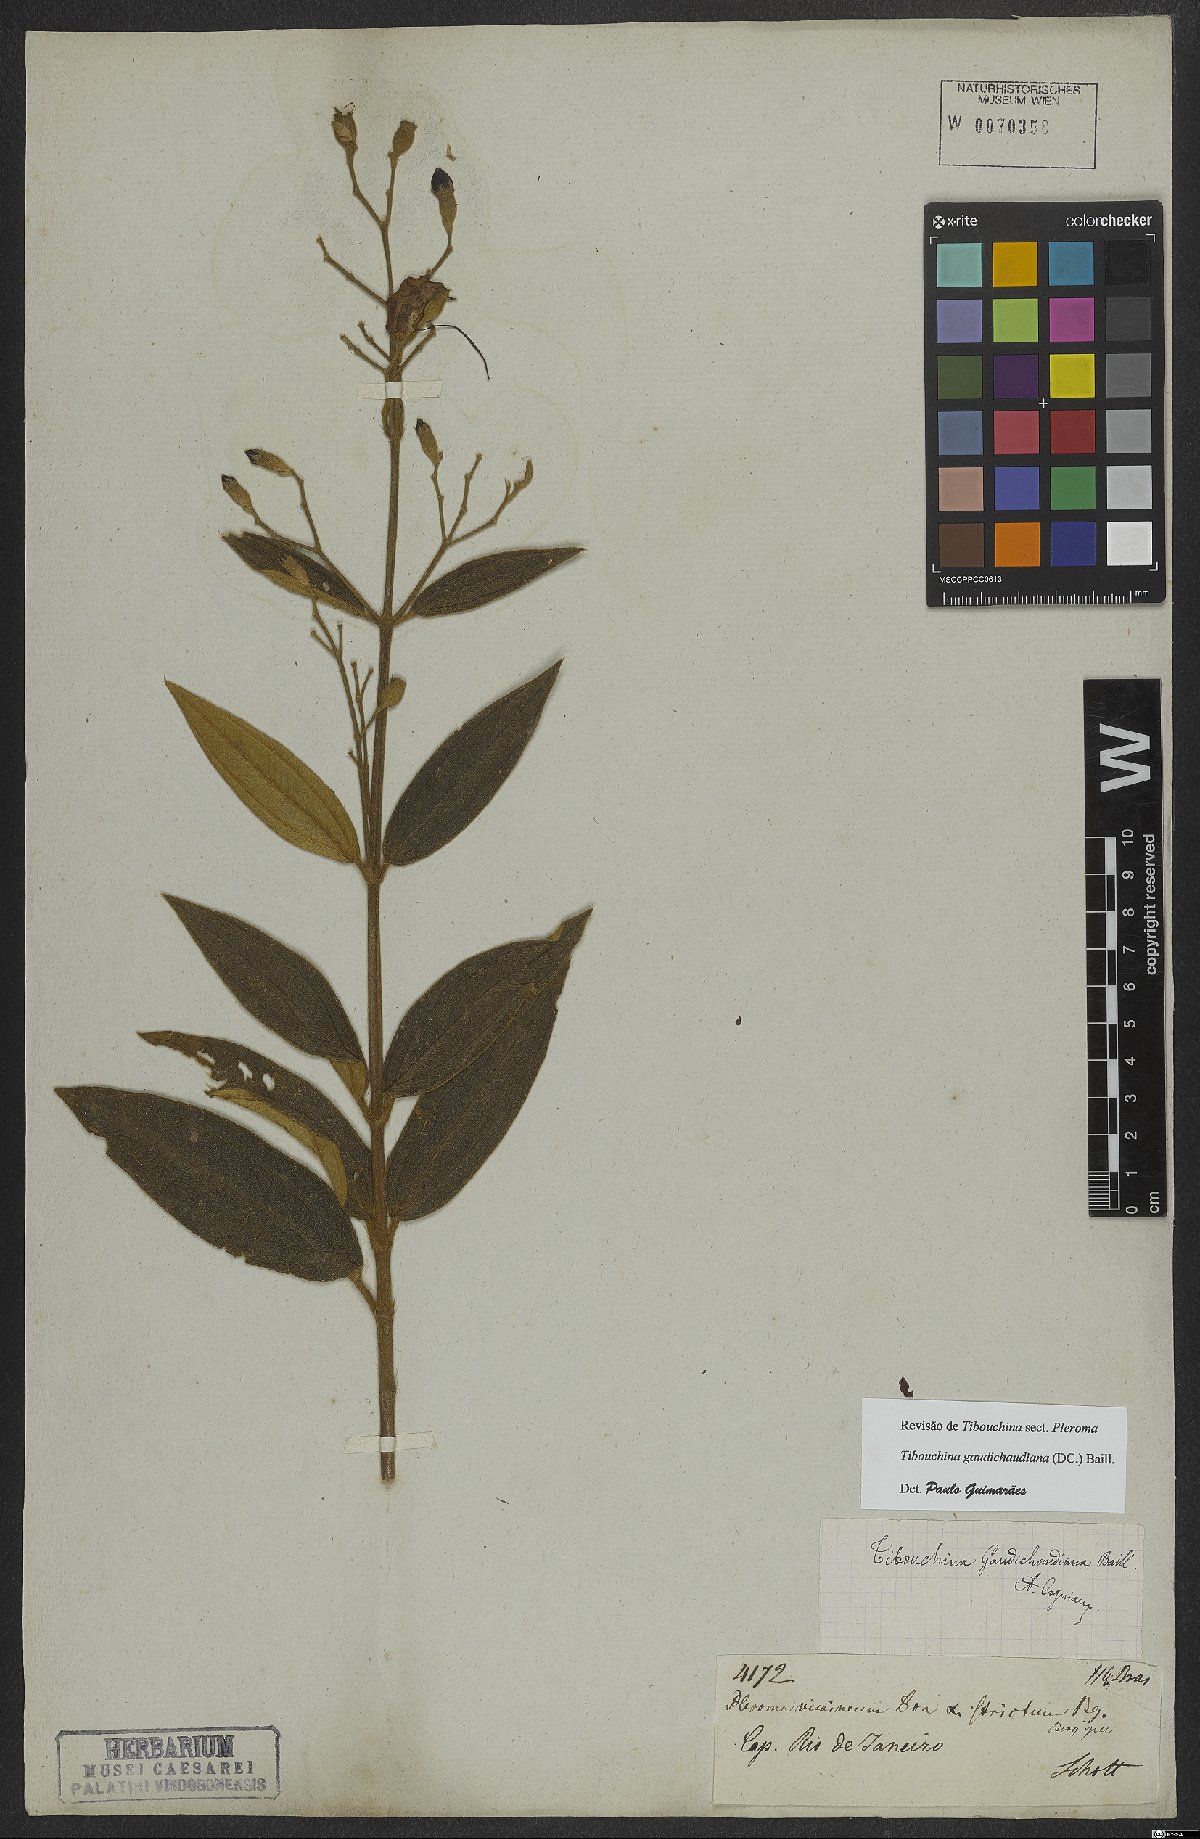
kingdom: Plantae
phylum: Tracheophyta
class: Magnoliopsida
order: Myrtales
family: Melastomataceae
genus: Pleroma
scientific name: Pleroma gaudichaudianum
